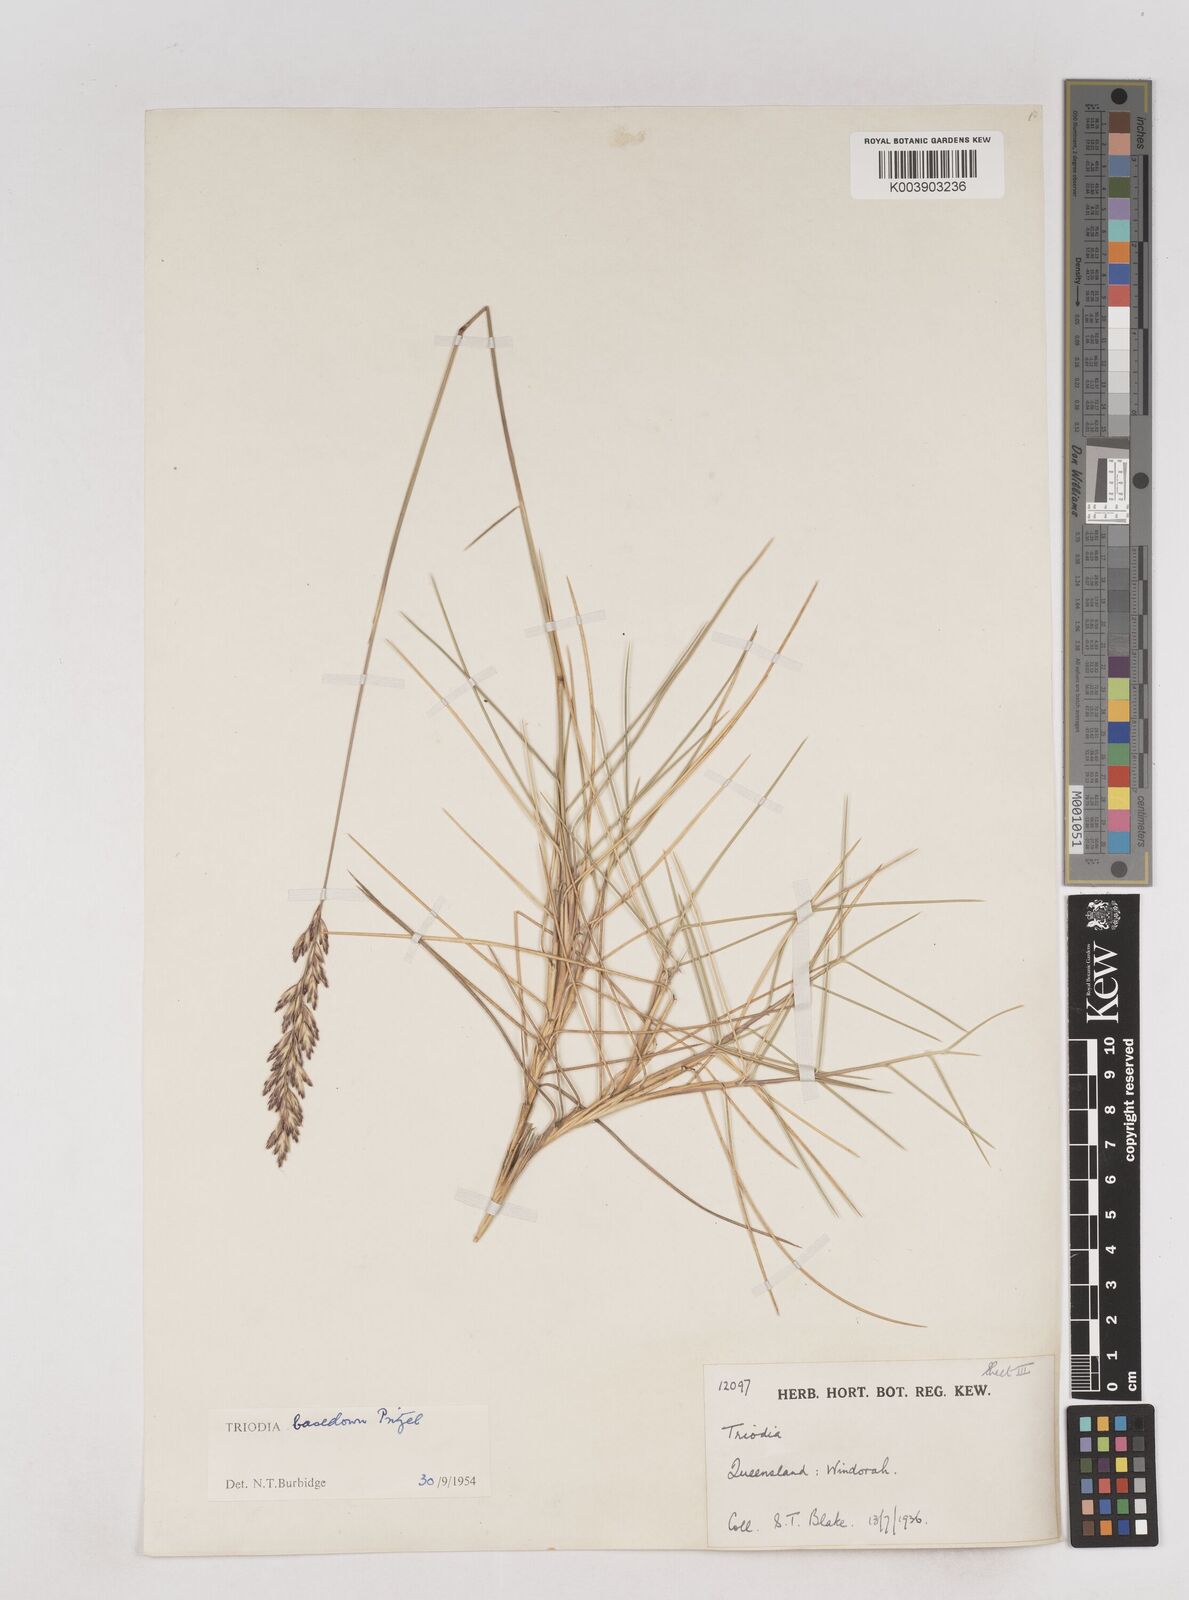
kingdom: Plantae
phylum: Tracheophyta
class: Liliopsida
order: Poales
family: Poaceae
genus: Triodia
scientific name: Triodia basedowii
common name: Hard spinifex
